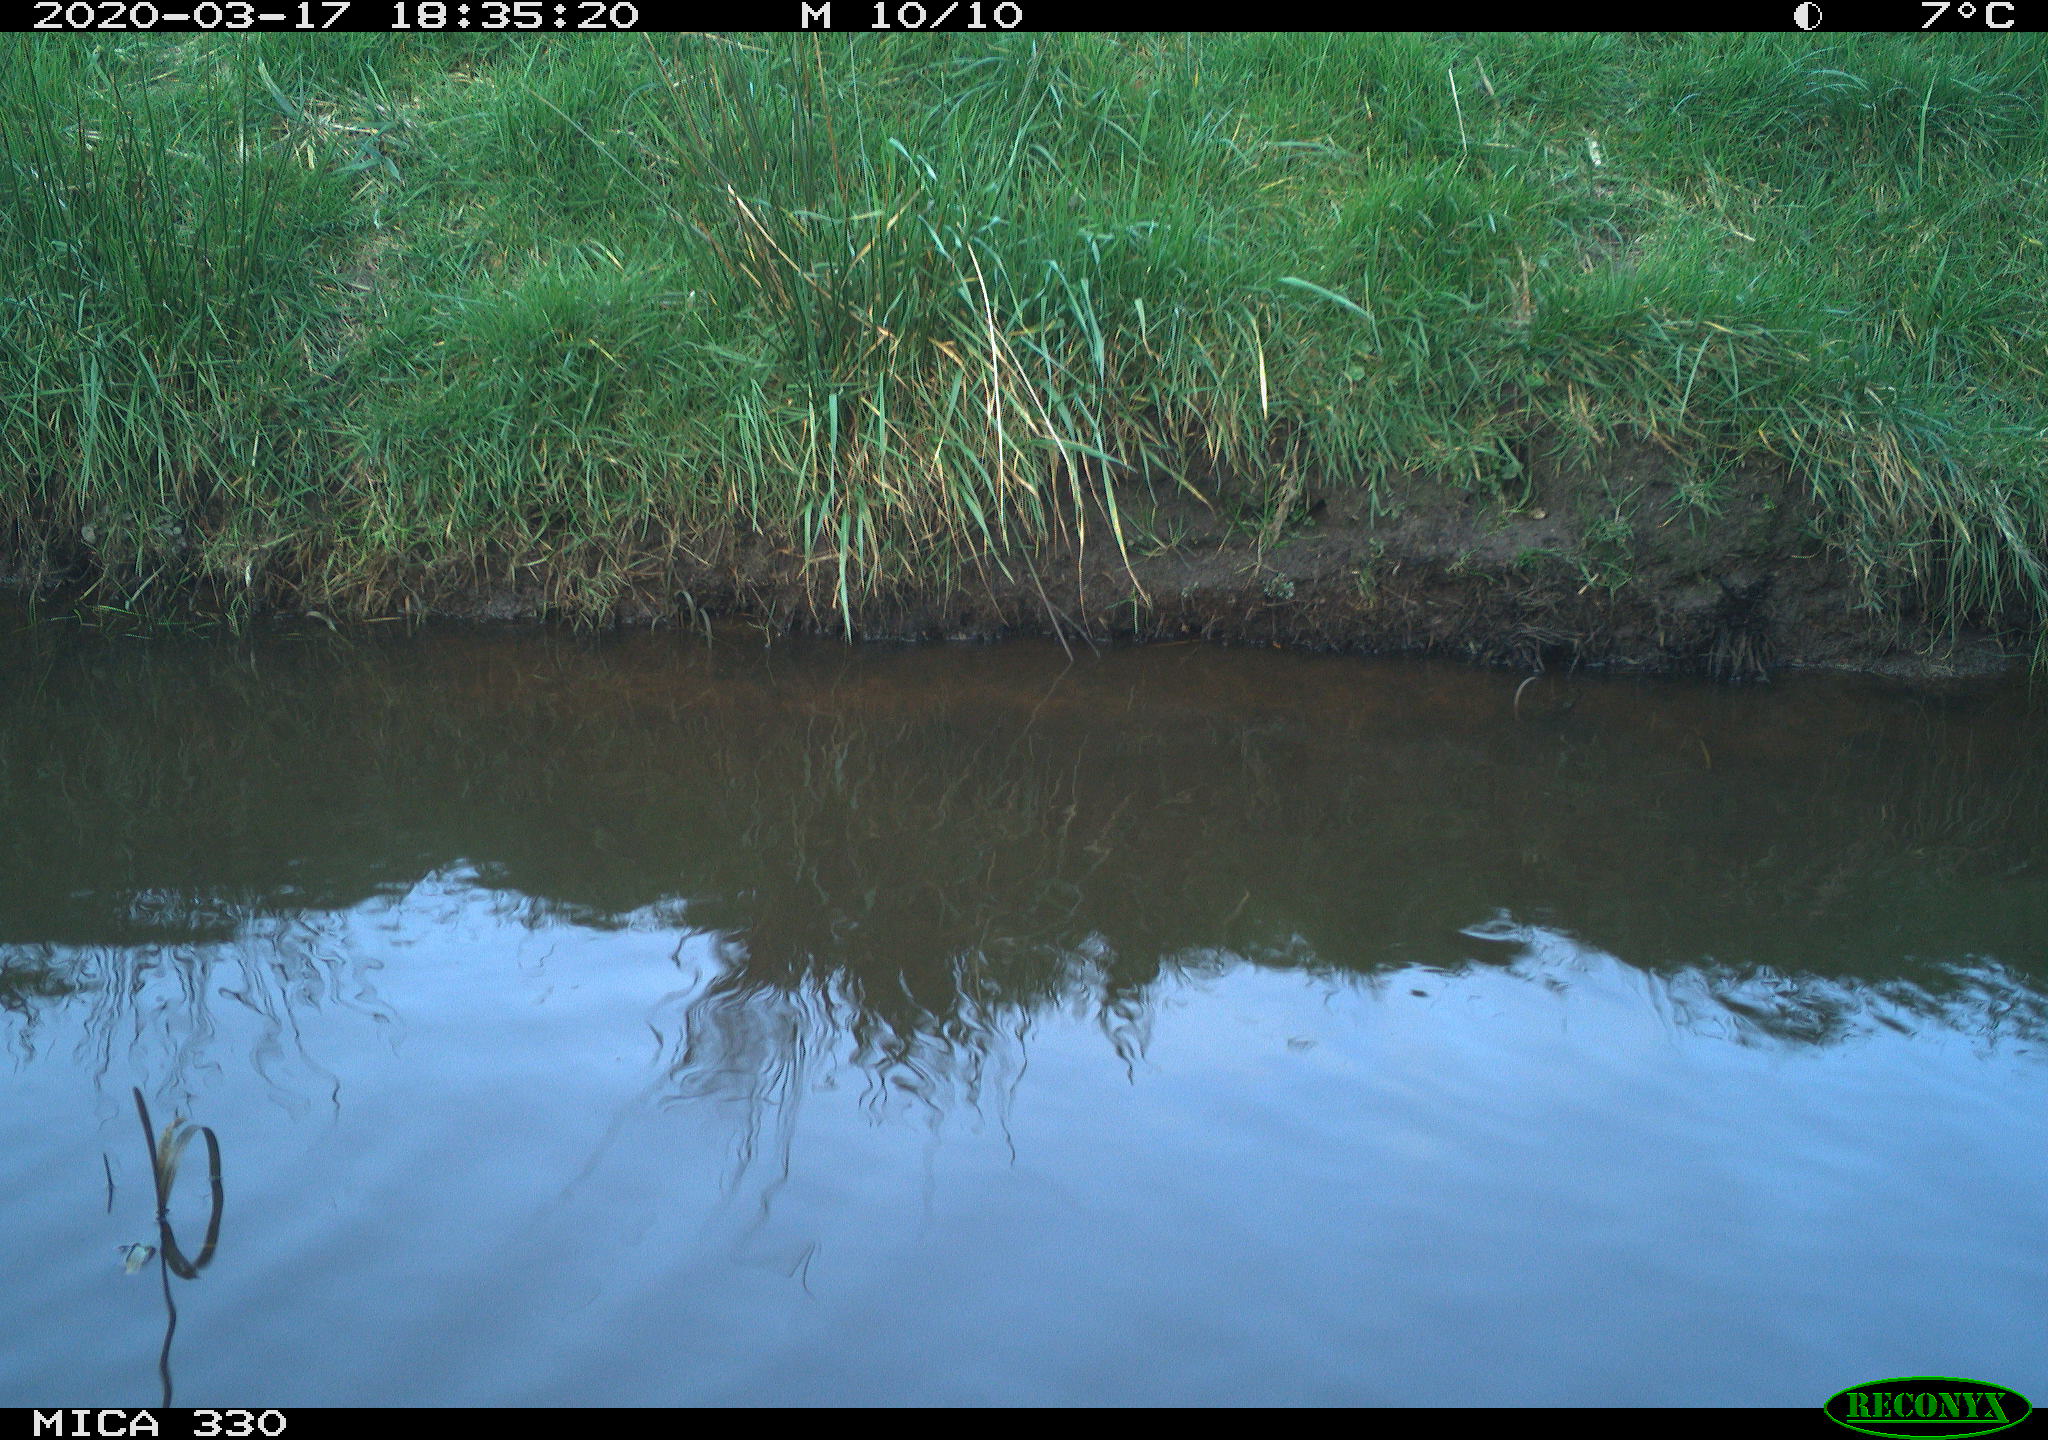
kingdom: Animalia
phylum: Chordata
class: Aves
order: Anseriformes
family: Anatidae
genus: Anas
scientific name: Anas platyrhynchos
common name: Mallard
